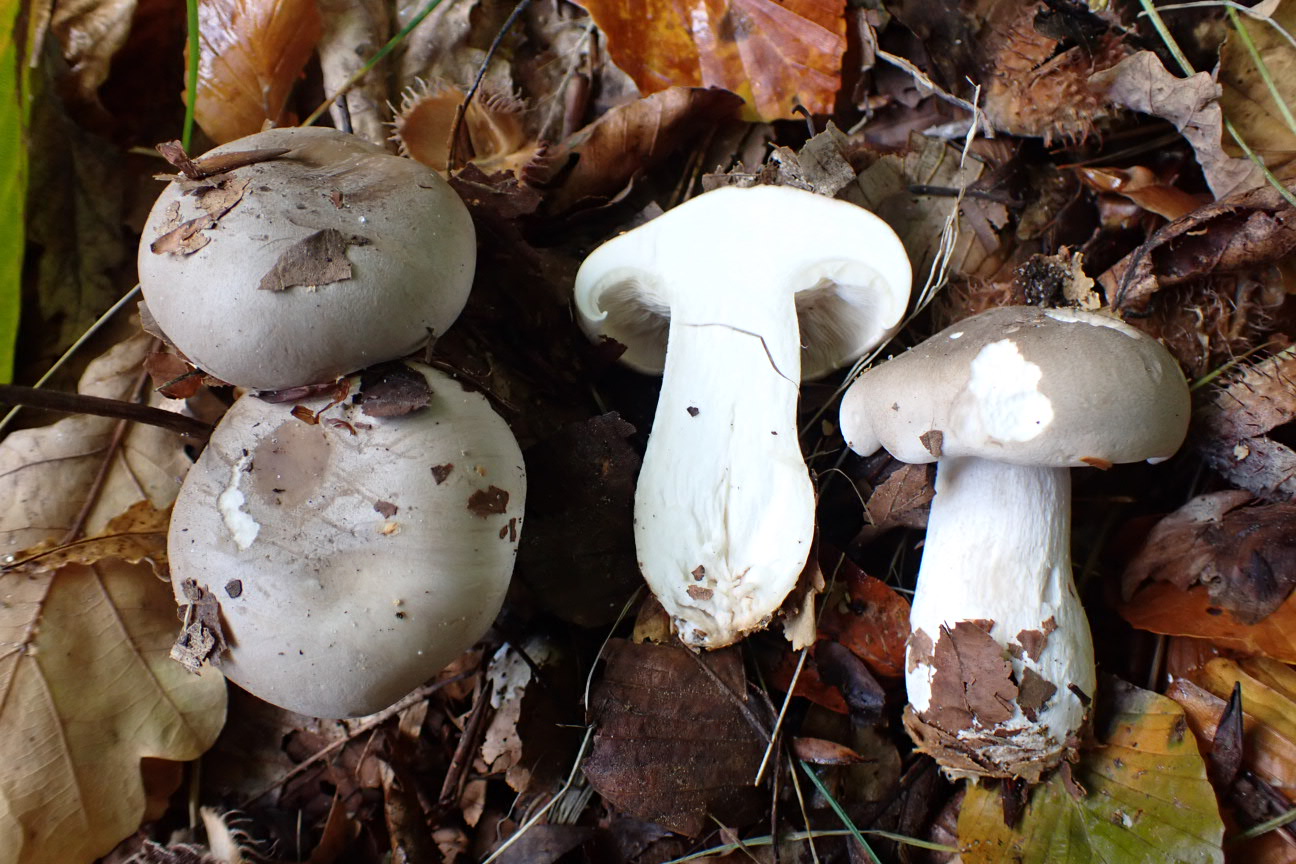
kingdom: Fungi
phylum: Basidiomycota
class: Agaricomycetes
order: Agaricales
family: Tricholomataceae
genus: Clitocybe
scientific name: Clitocybe nebularis
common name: tåge-tragthat
